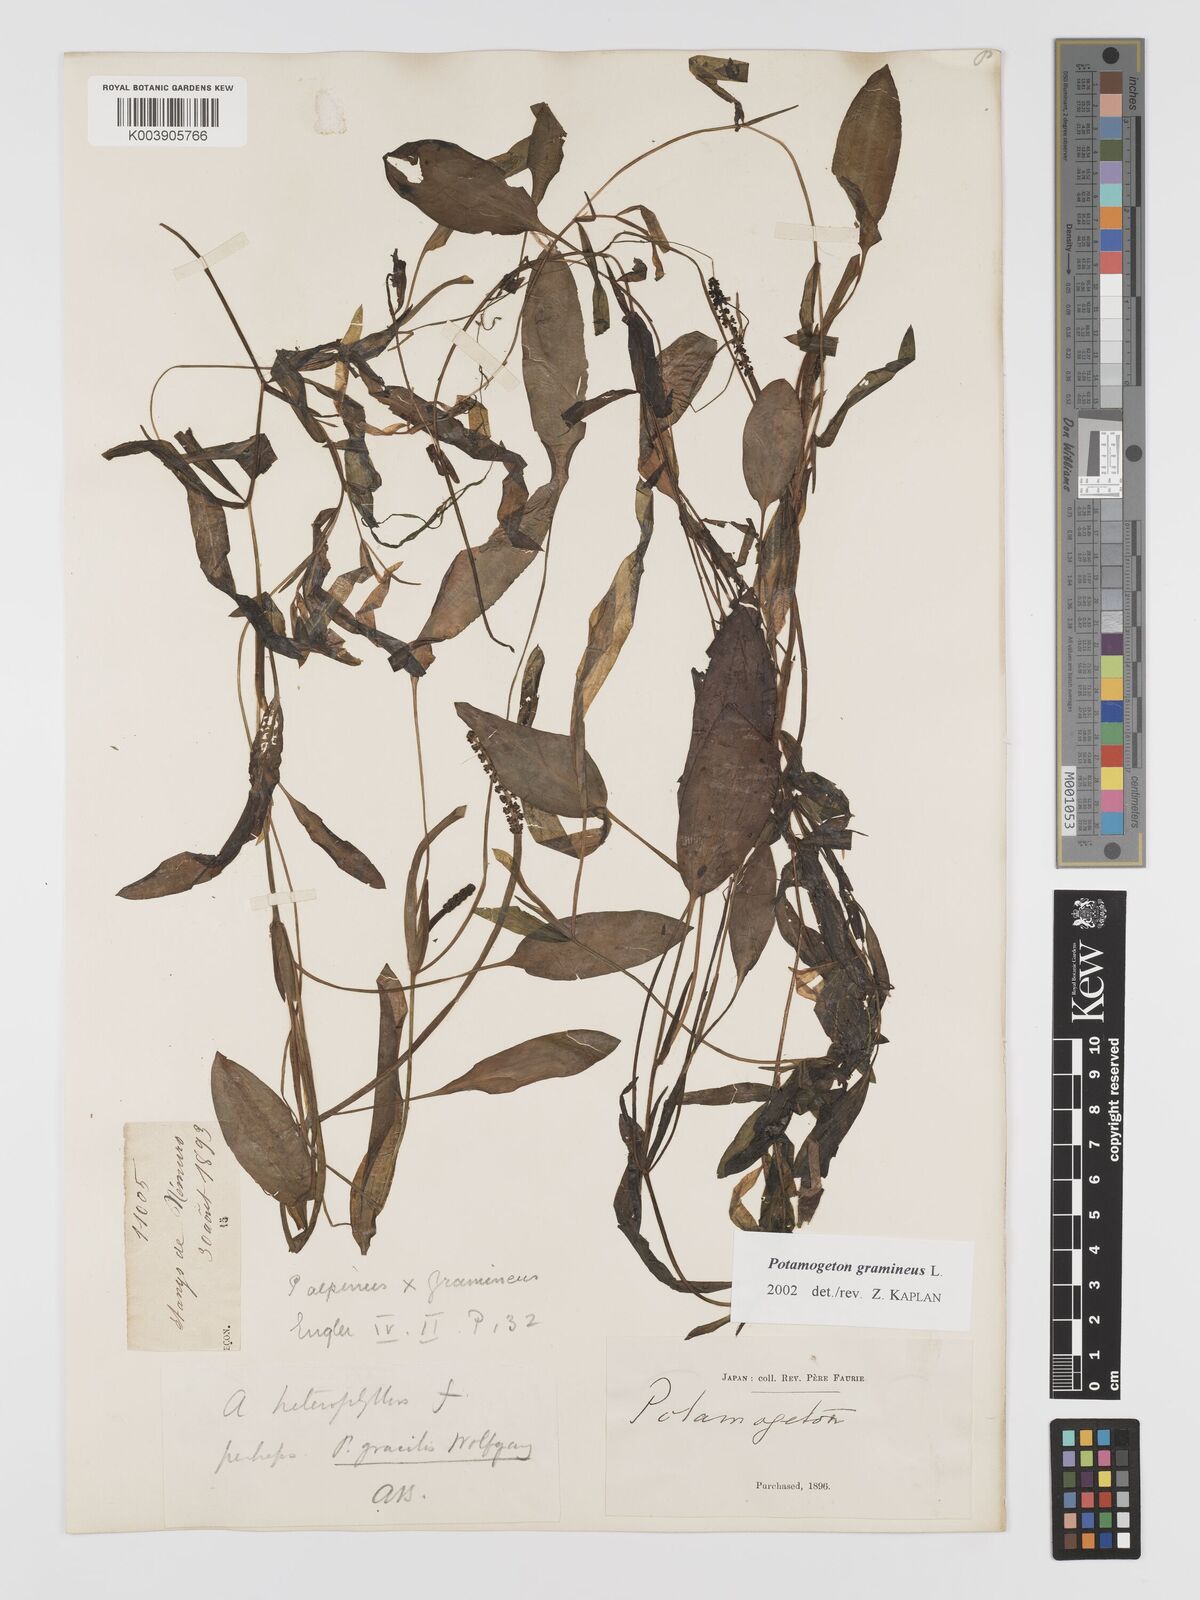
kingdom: Plantae
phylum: Tracheophyta
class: Liliopsida
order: Alismatales
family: Potamogetonaceae
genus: Potamogeton
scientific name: Potamogeton gramineus
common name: Various-leaved pondweed
